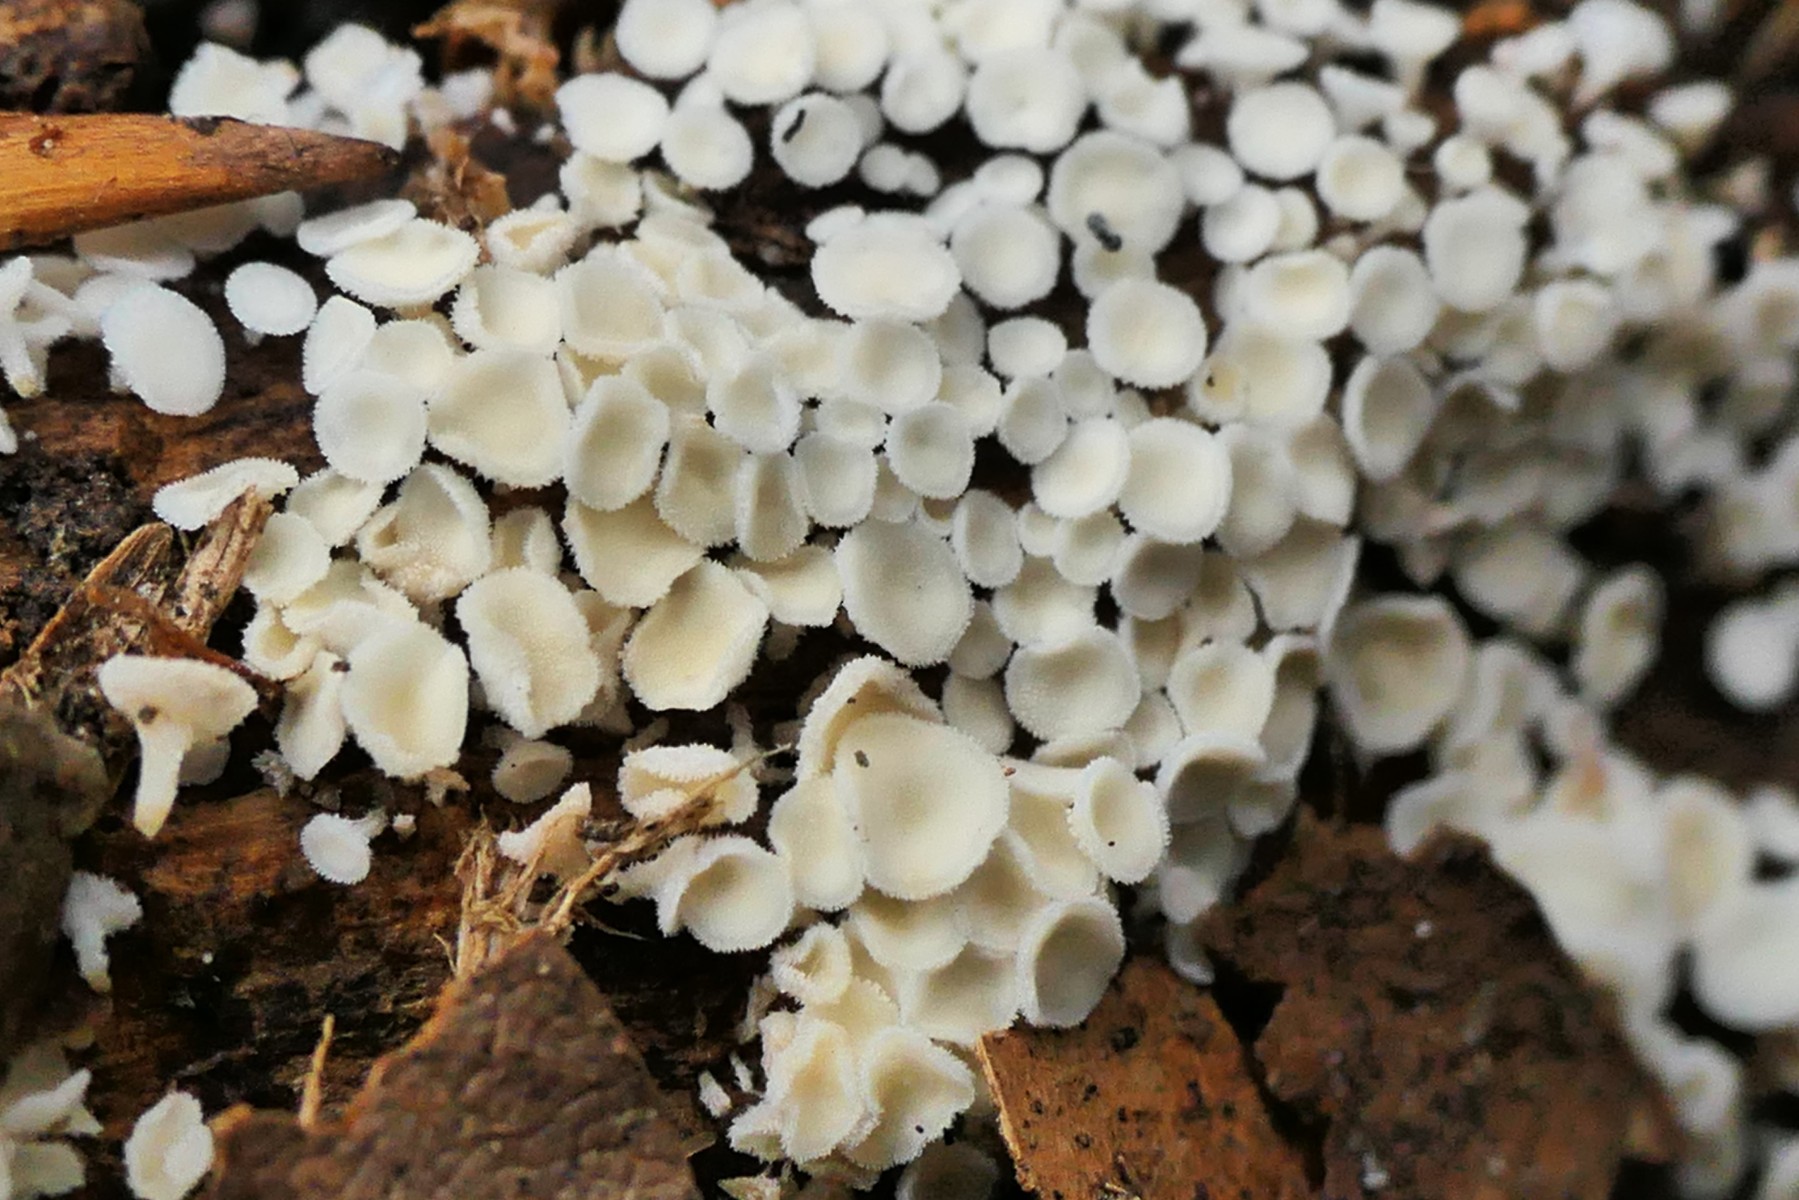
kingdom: Fungi
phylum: Ascomycota
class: Leotiomycetes
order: Helotiales
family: Lachnaceae
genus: Lachnum
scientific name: Lachnum
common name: frynseskive
